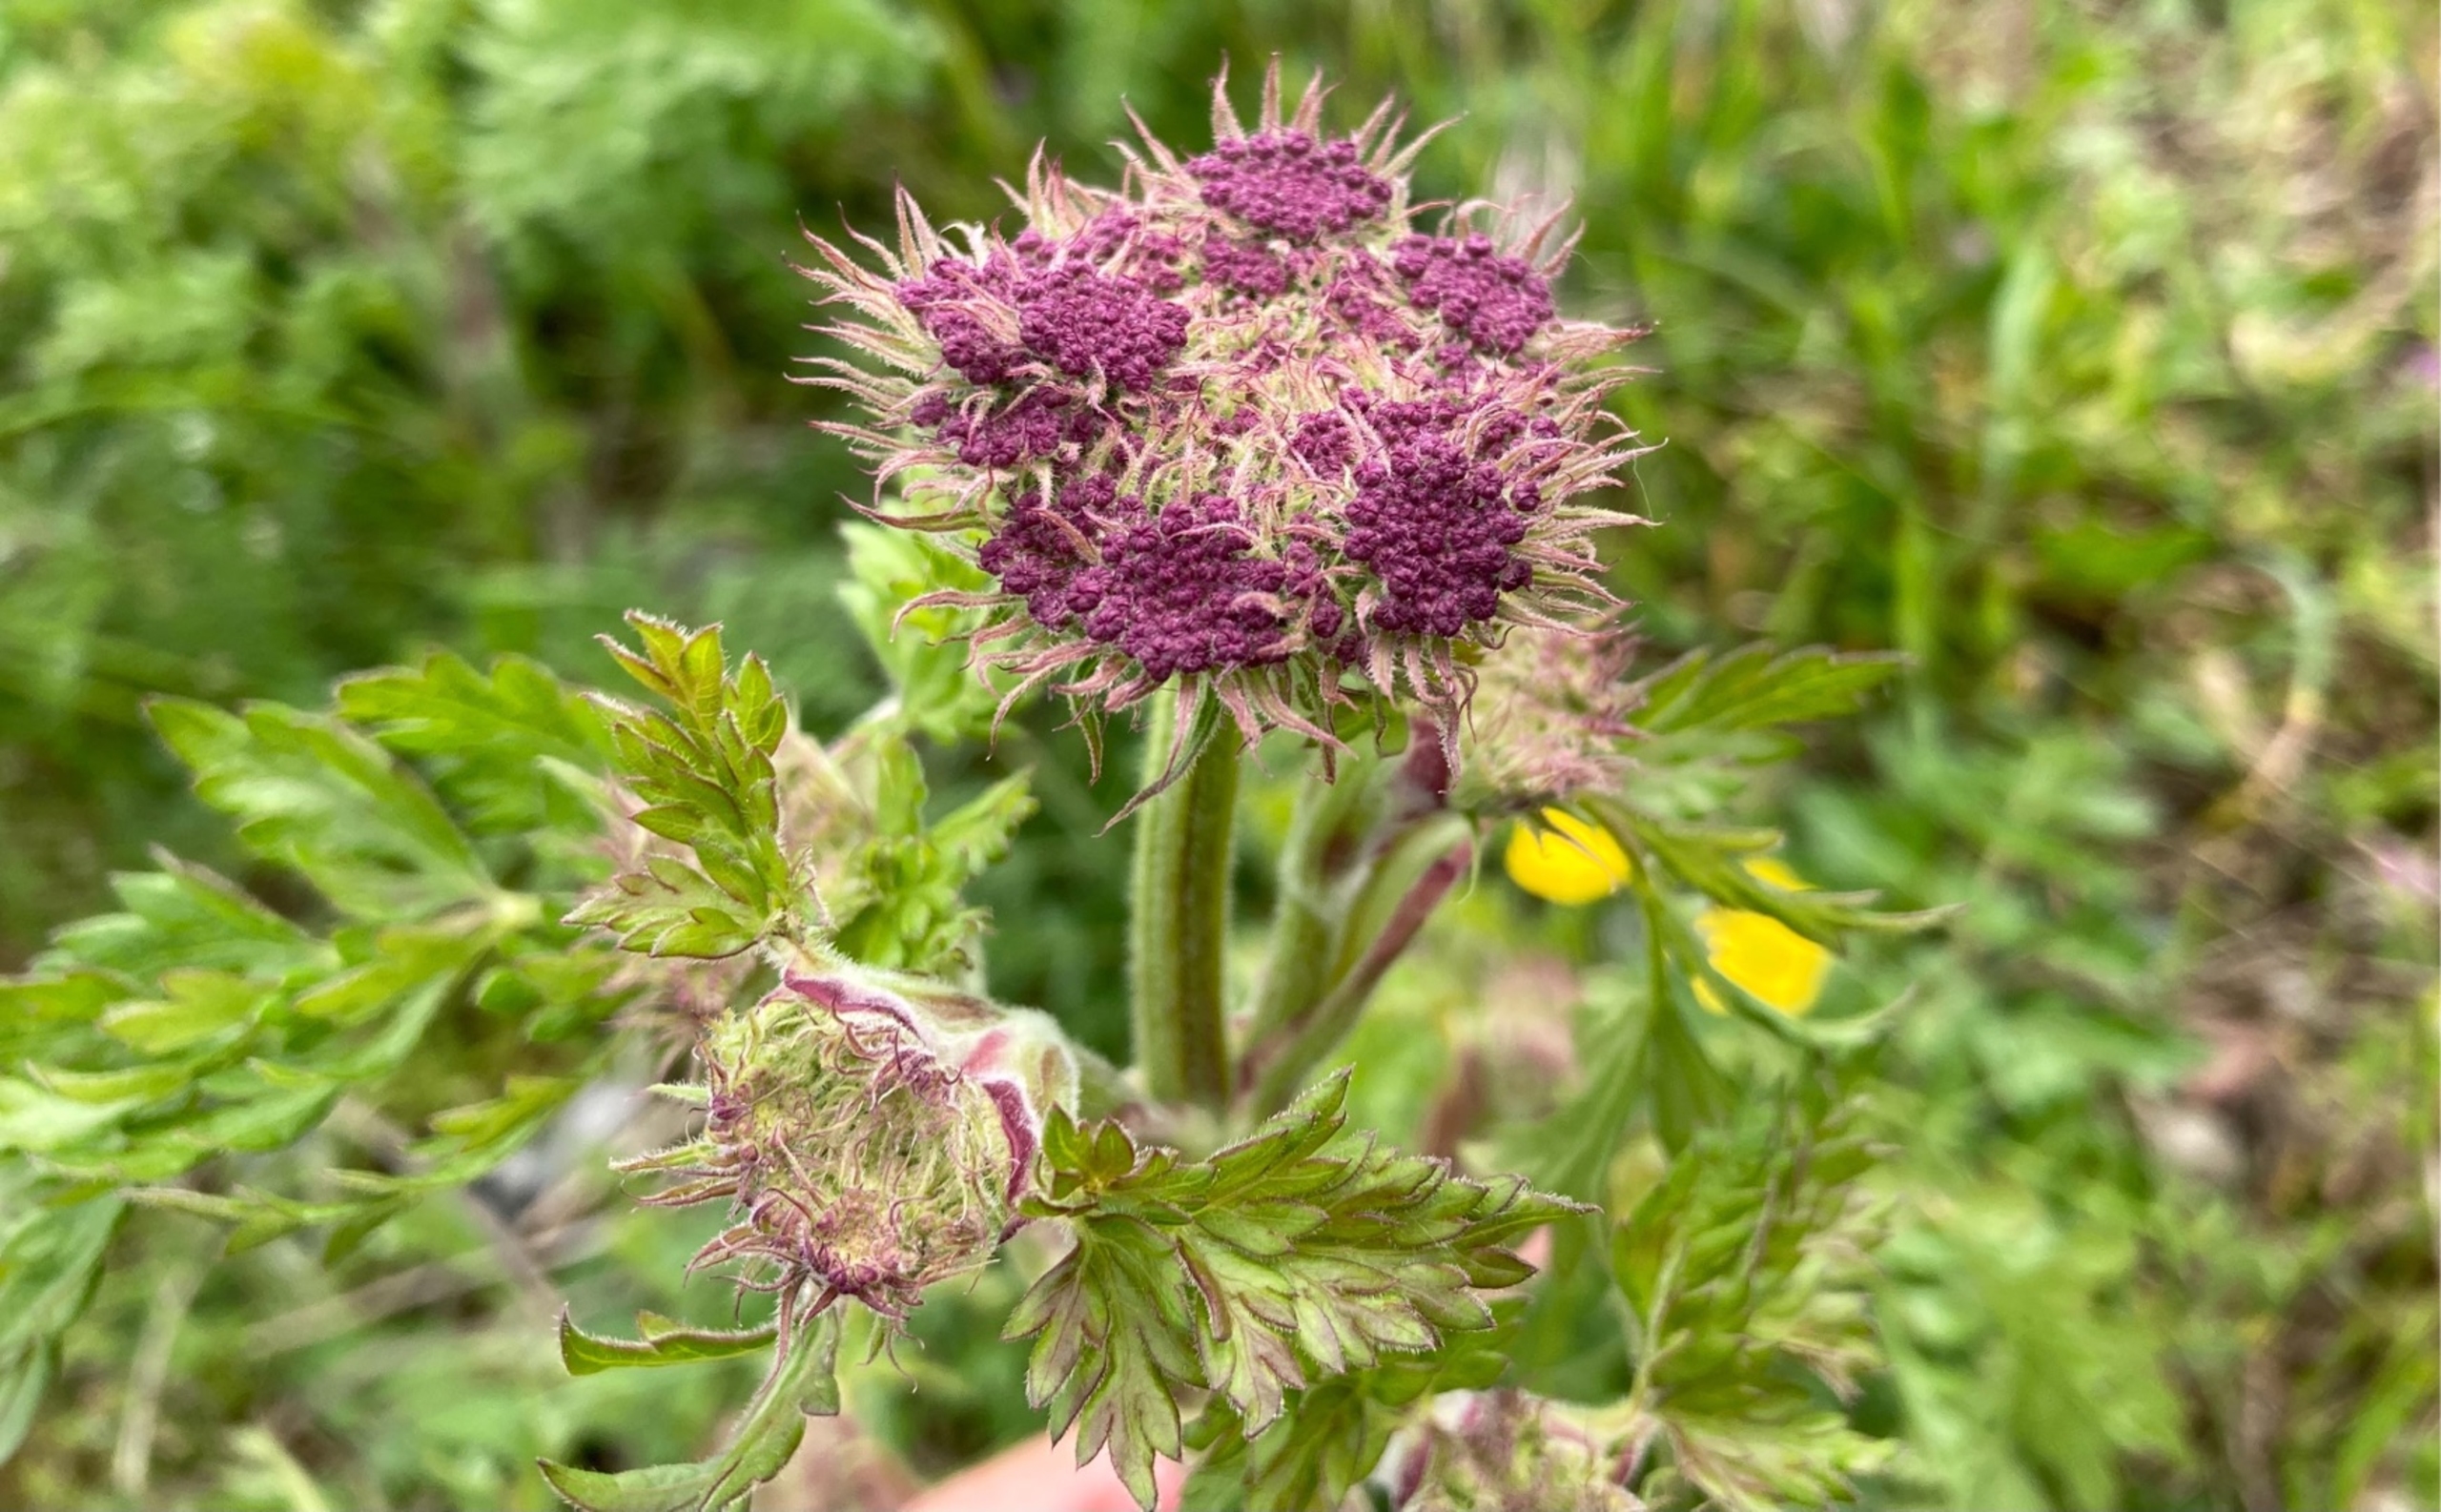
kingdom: Plantae
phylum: Tracheophyta
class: Magnoliopsida
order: Apiales
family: Apiaceae
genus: Seseli
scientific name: Seseli libanotis
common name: Hjorterod
